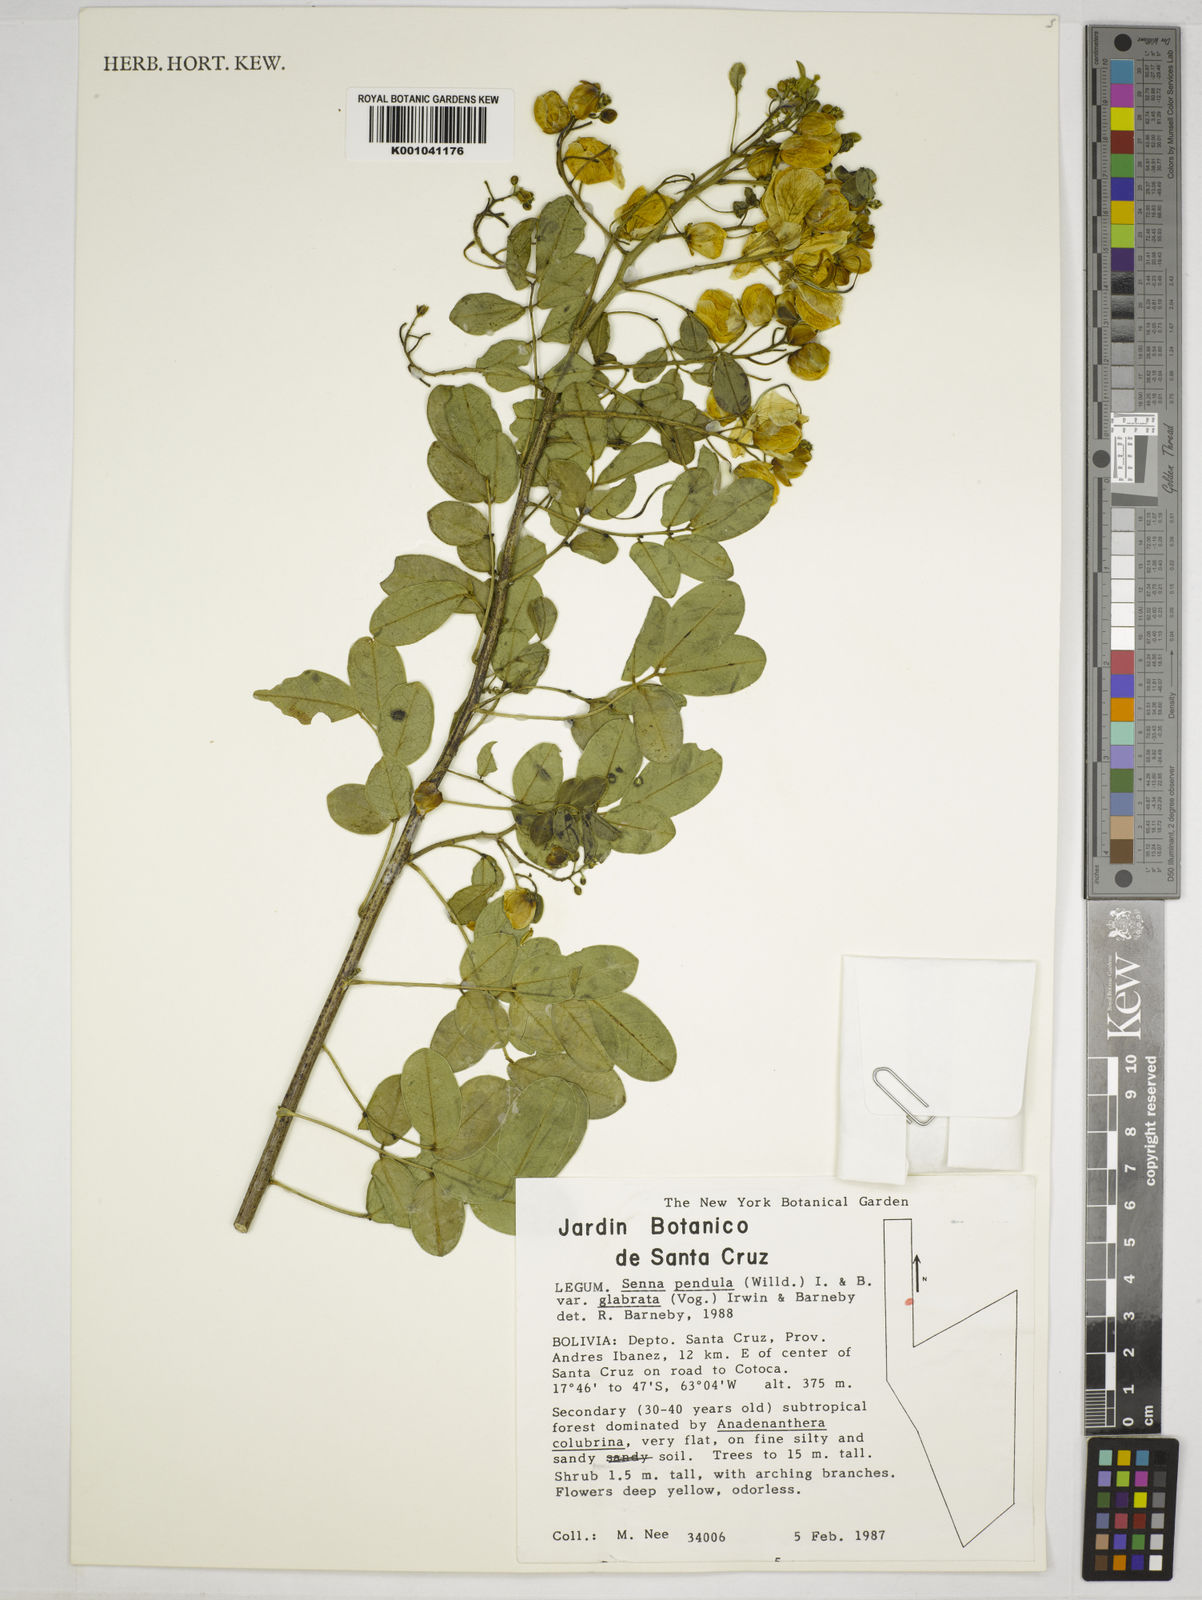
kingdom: Plantae
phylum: Tracheophyta
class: Magnoliopsida
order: Fabales
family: Fabaceae
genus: Senna
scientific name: Senna pendula
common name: Easter cassia
